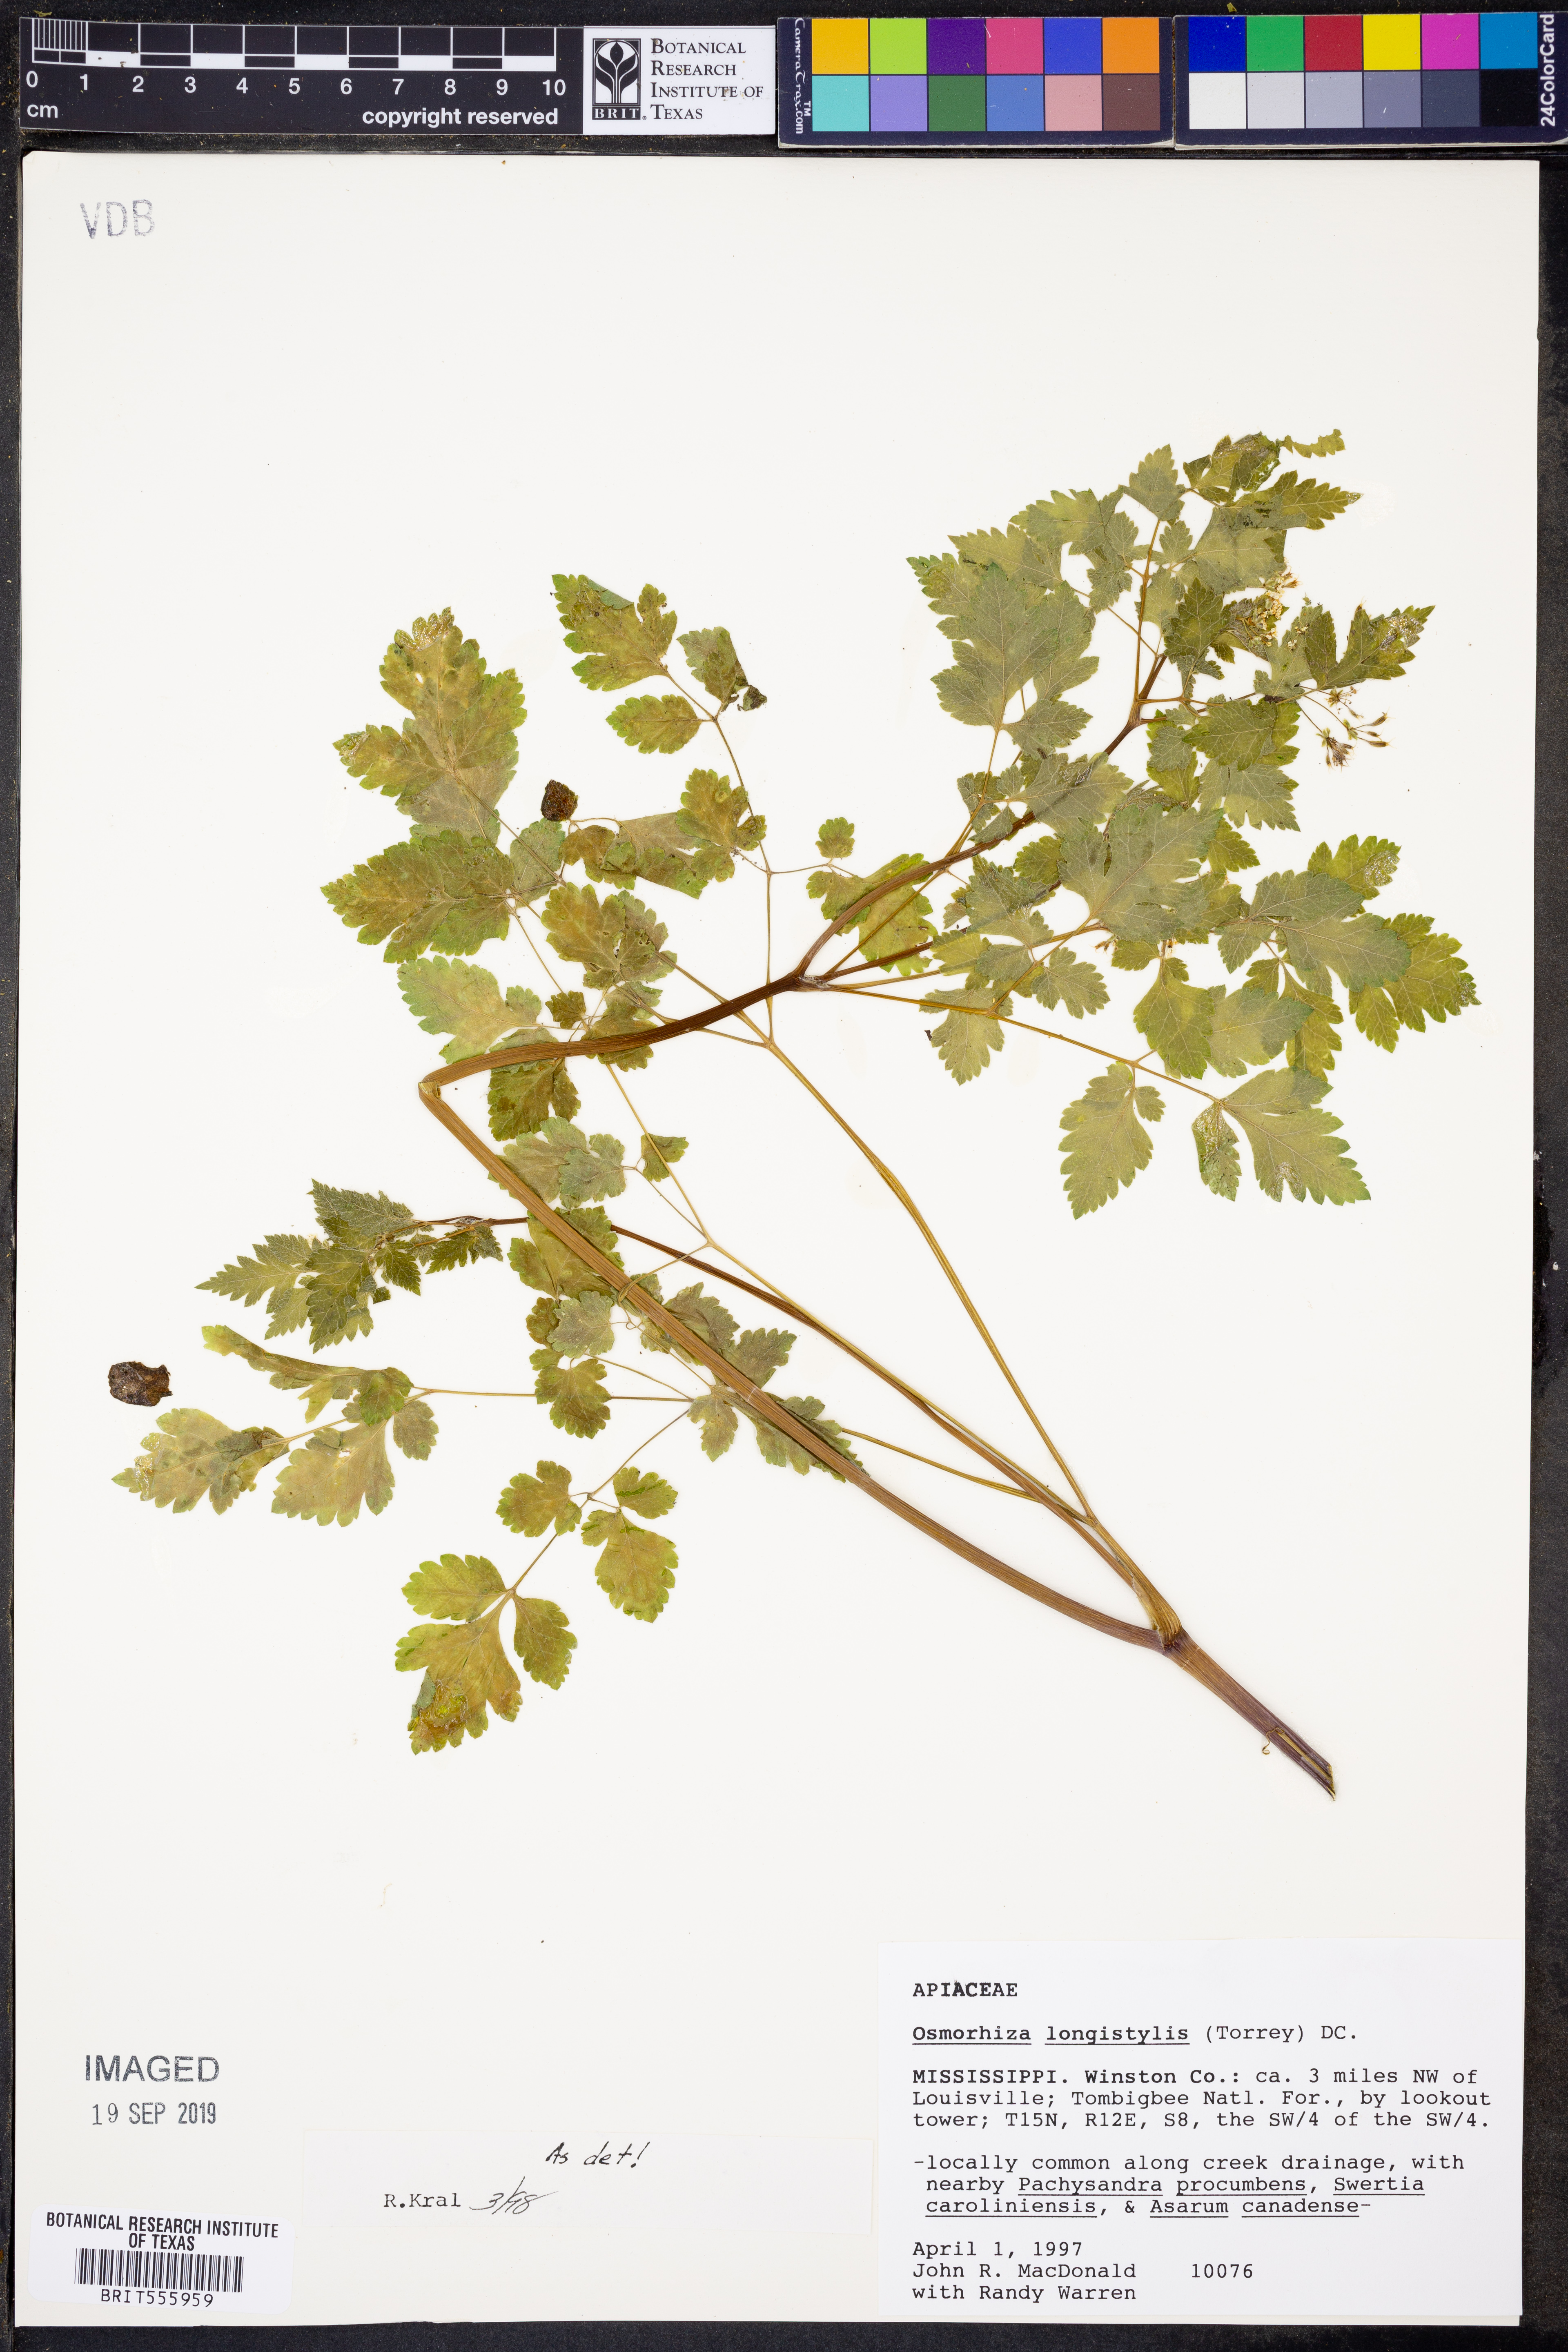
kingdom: Plantae
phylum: Tracheophyta
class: Magnoliopsida
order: Apiales
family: Apiaceae
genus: Osmorhiza
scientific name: Osmorhiza longistylis
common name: Smooth sweet cicely
